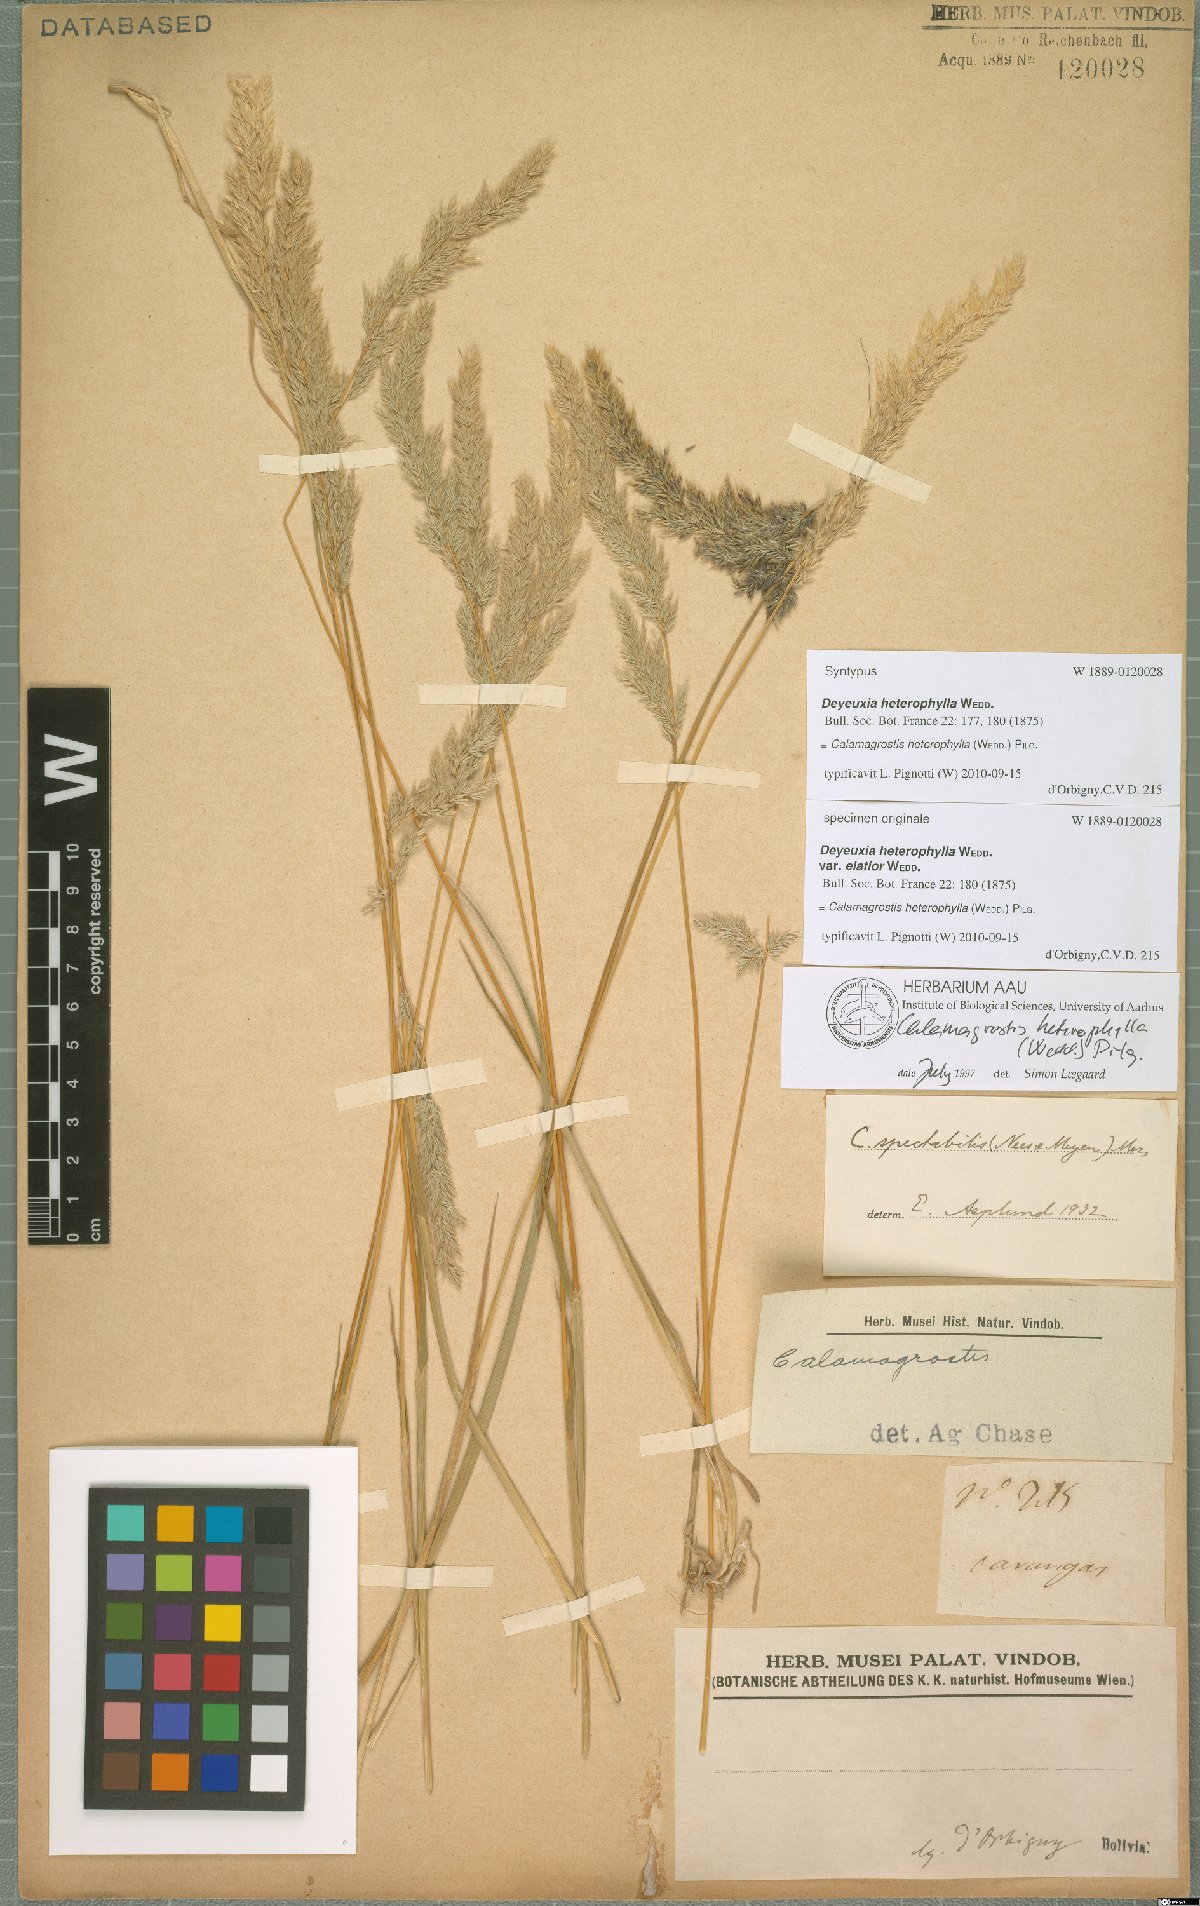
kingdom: Plantae
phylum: Tracheophyta
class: Liliopsida
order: Poales
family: Poaceae
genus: Cinnagrostis
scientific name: Cinnagrostis heterophylla
